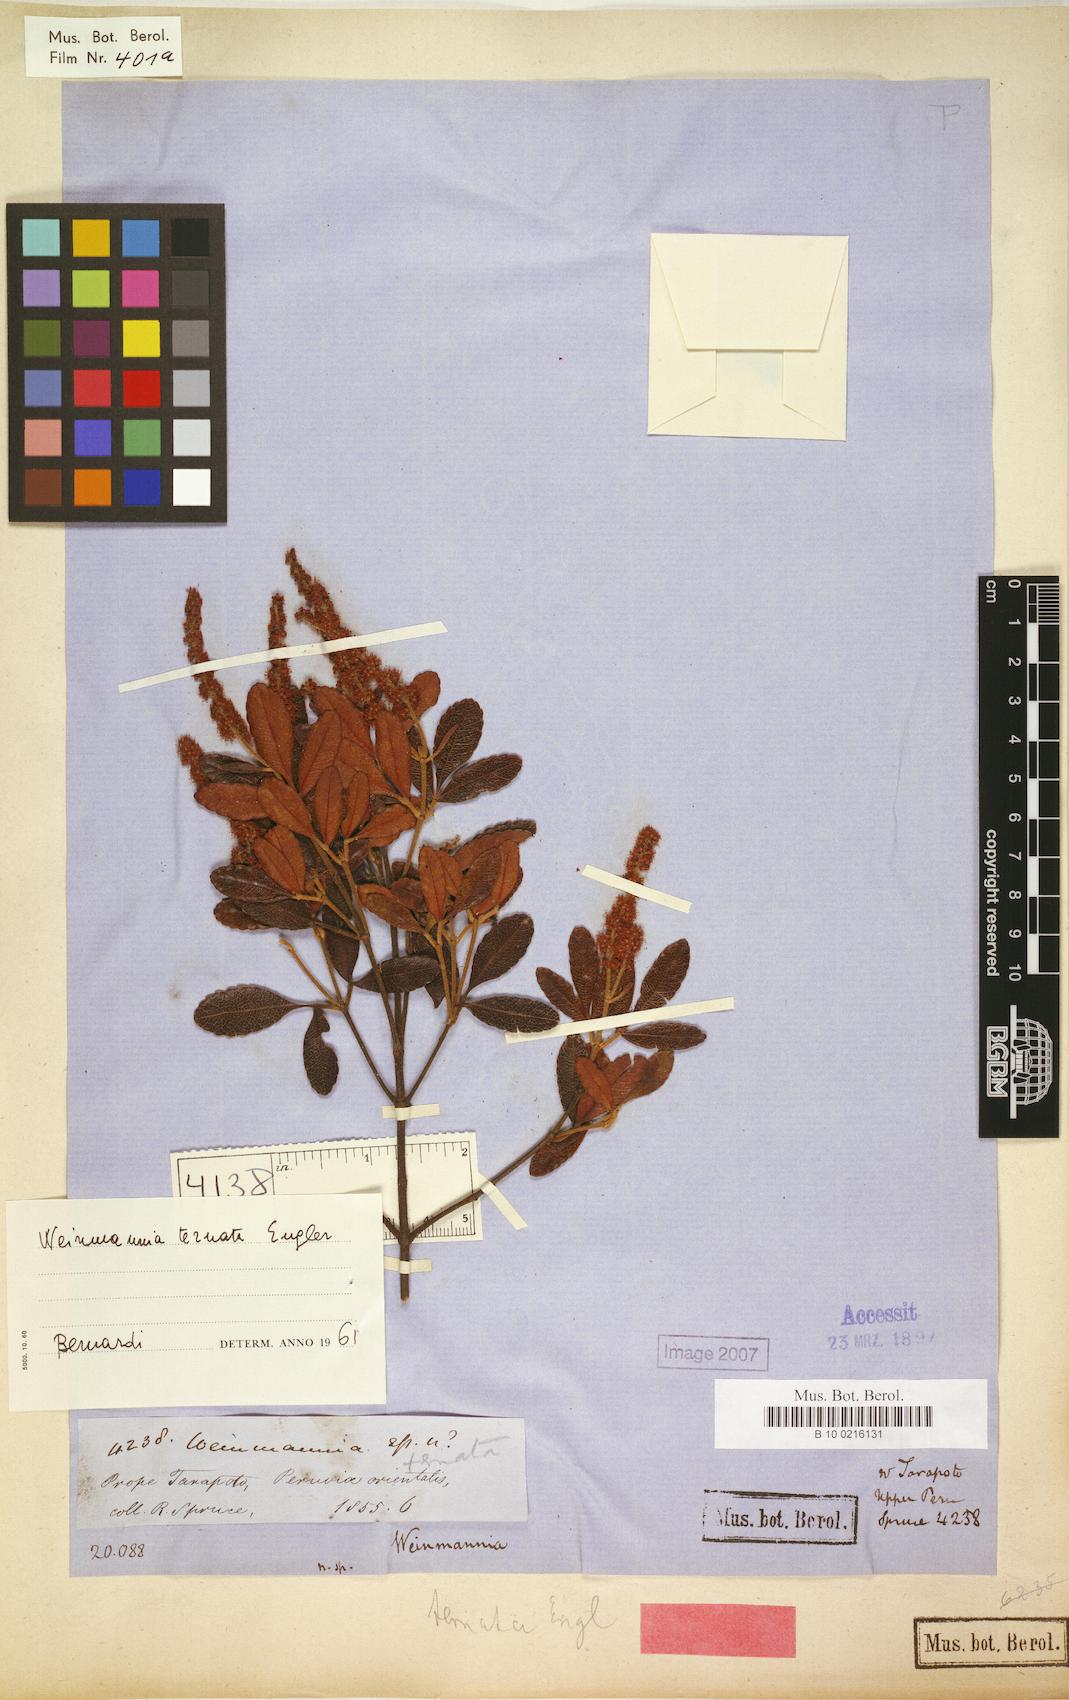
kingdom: Plantae
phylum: Tracheophyta
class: Magnoliopsida
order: Oxalidales
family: Cunoniaceae
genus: Weinmannia
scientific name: Weinmannia ternata
